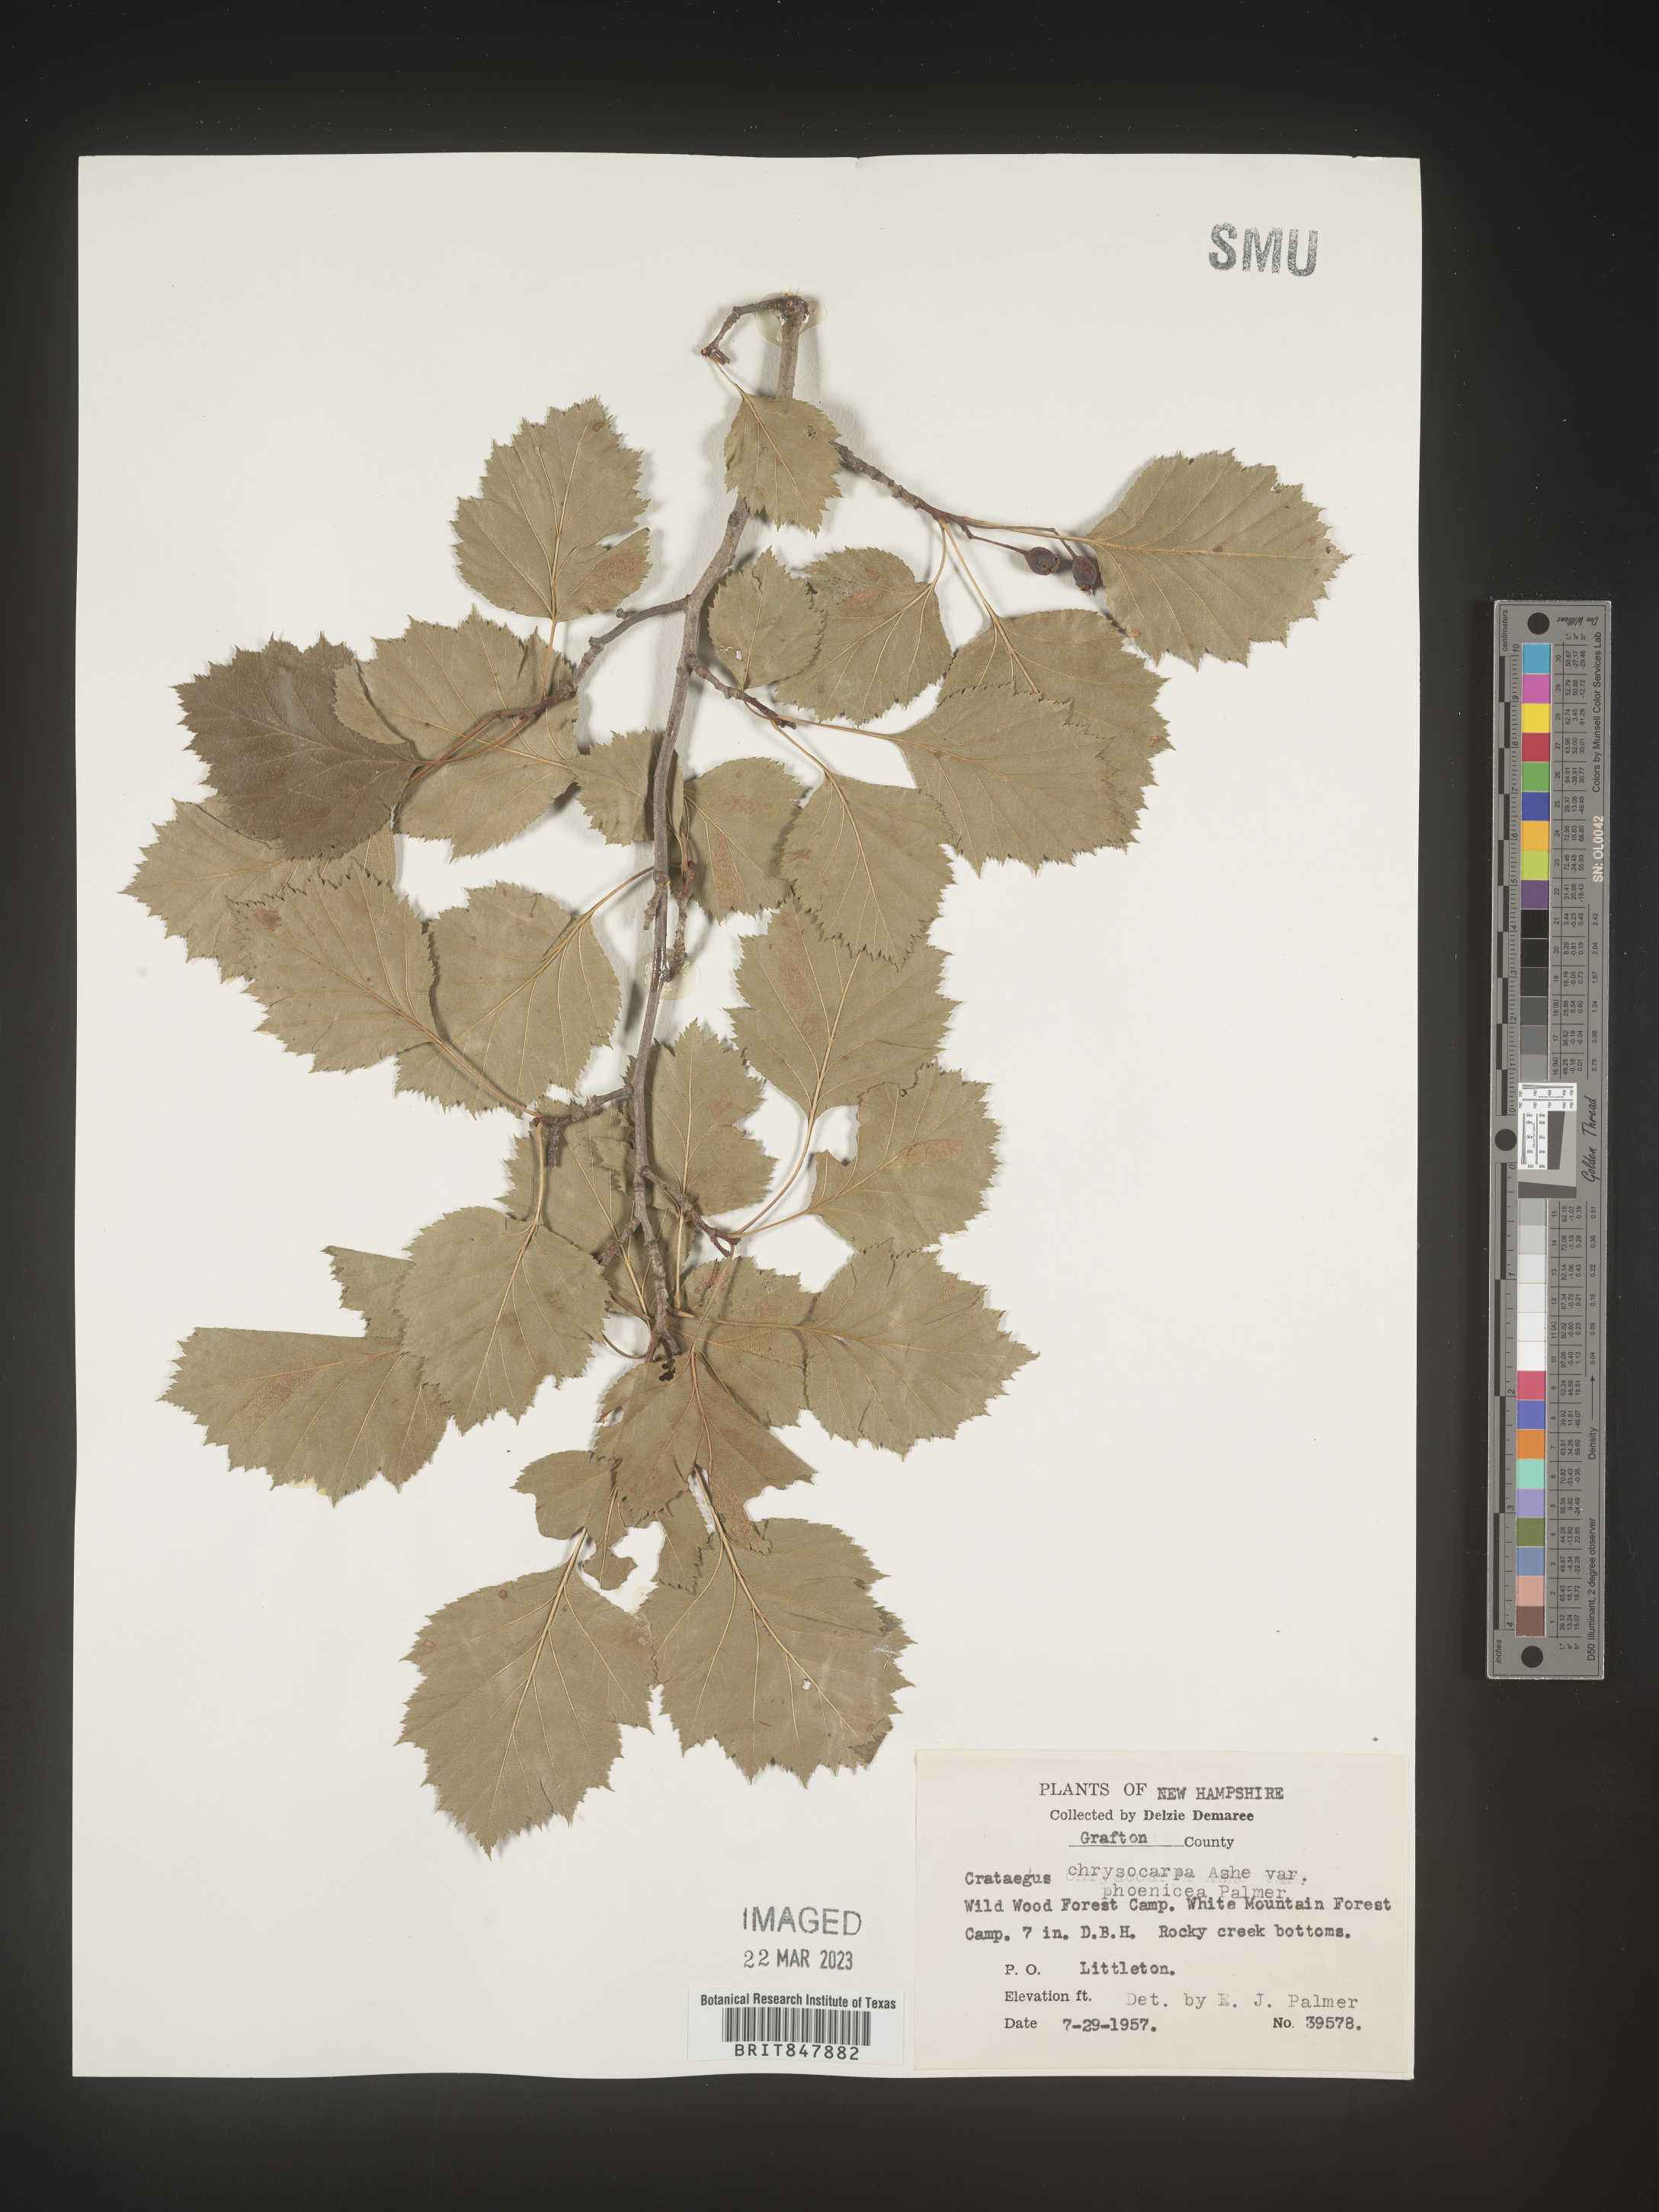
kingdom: Plantae
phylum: Tracheophyta
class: Magnoliopsida
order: Rosales
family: Rosaceae
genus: Crataegus
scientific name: Crataegus chrysocarpa
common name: Fire-berry hawthorn
